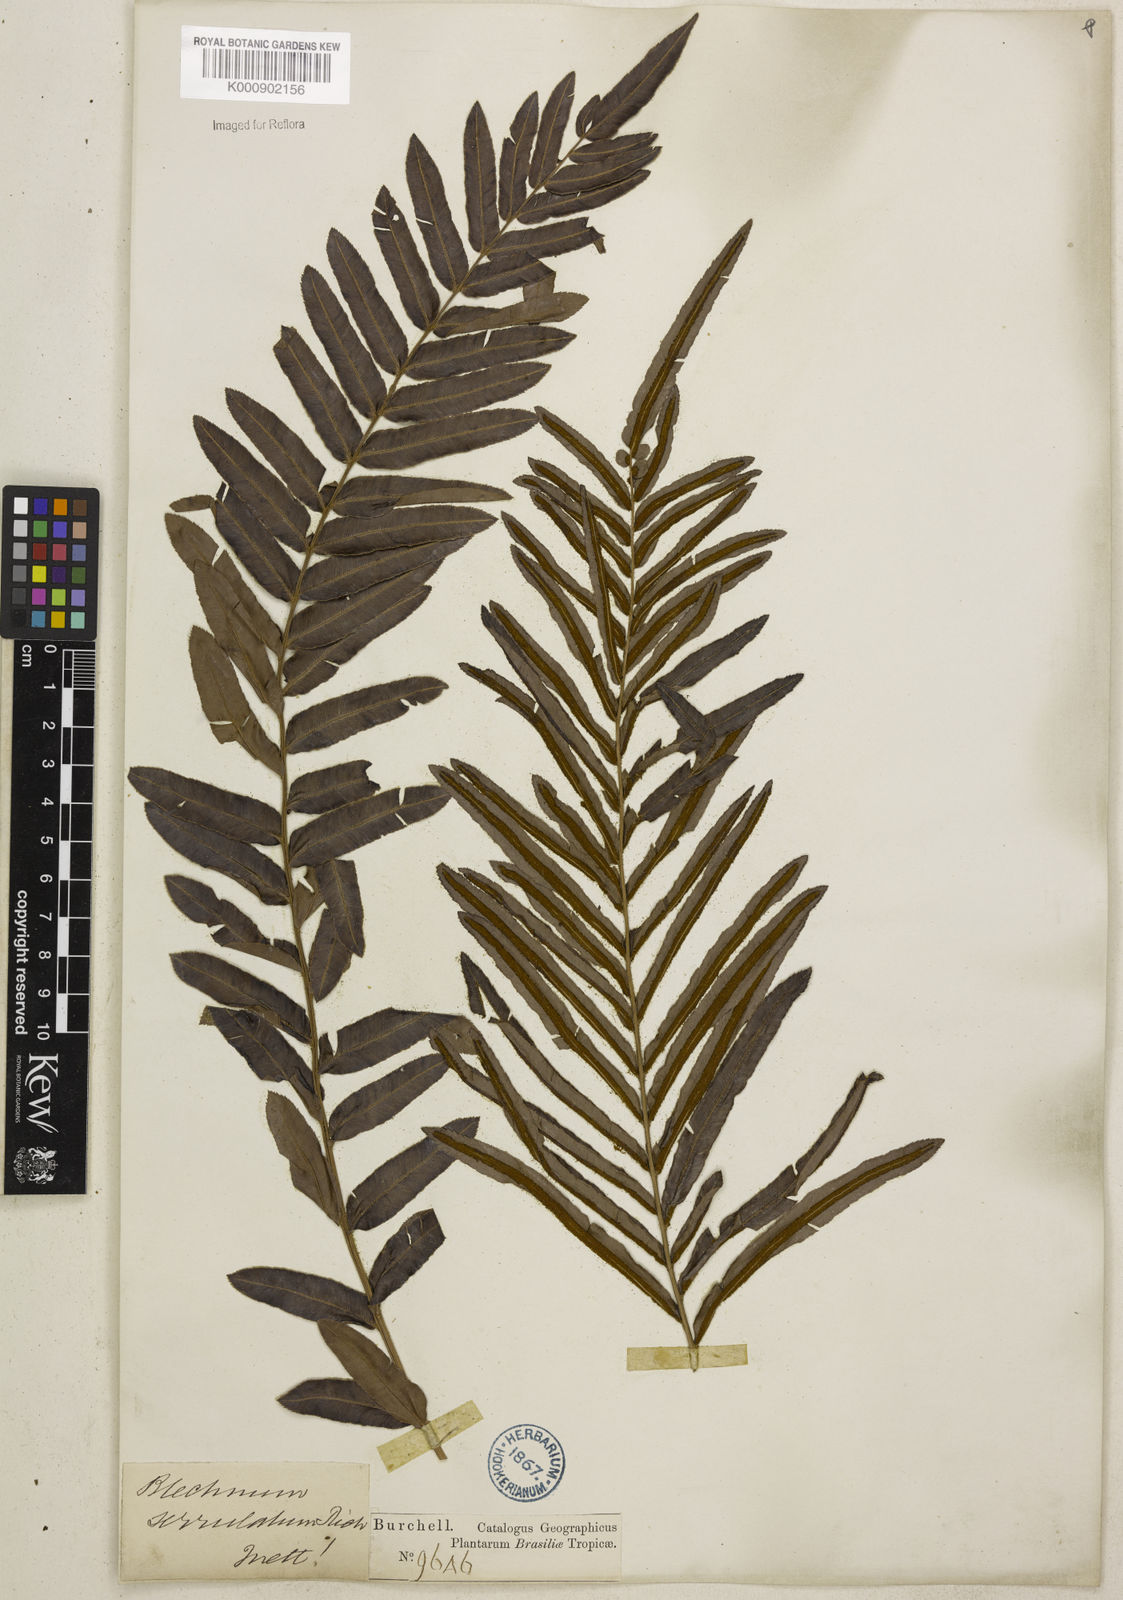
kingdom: Plantae
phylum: Tracheophyta
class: Polypodiopsida
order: Polypodiales
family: Blechnaceae
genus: Telmatoblechnum
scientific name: Telmatoblechnum serrulatum
